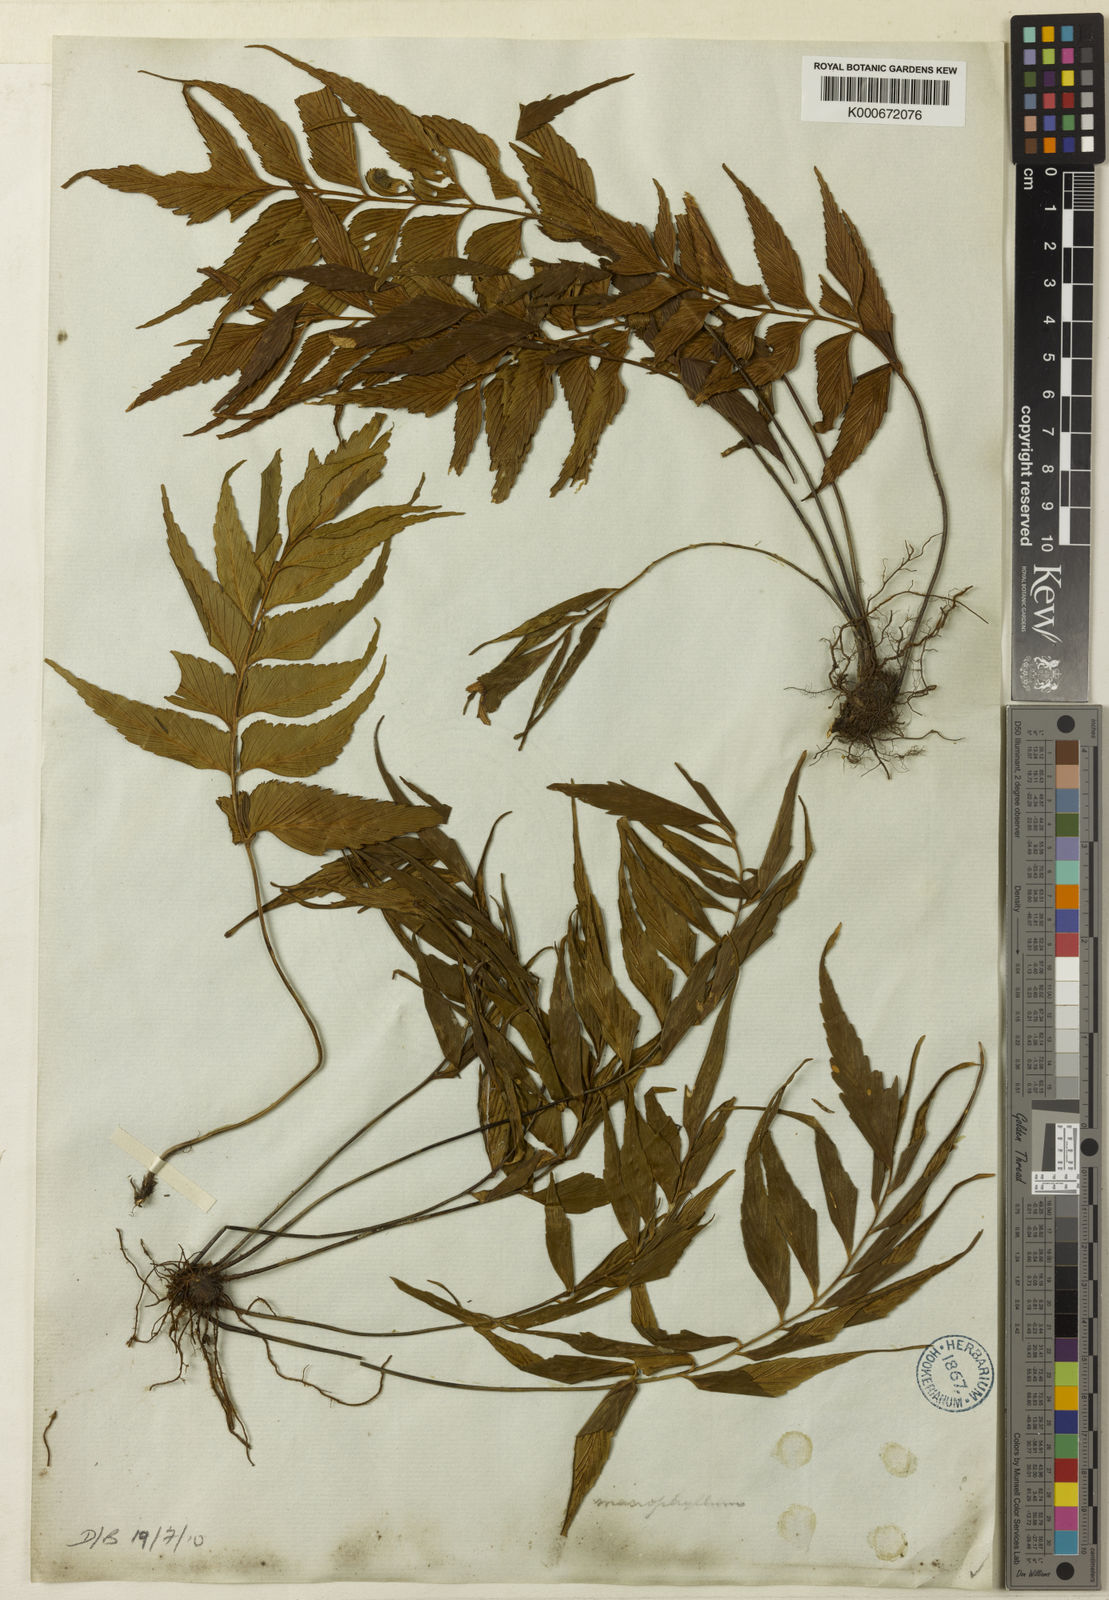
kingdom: Plantae
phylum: Tracheophyta
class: Polypodiopsida
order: Polypodiales
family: Aspleniaceae
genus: Asplenium
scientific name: Asplenium macrophyllum
